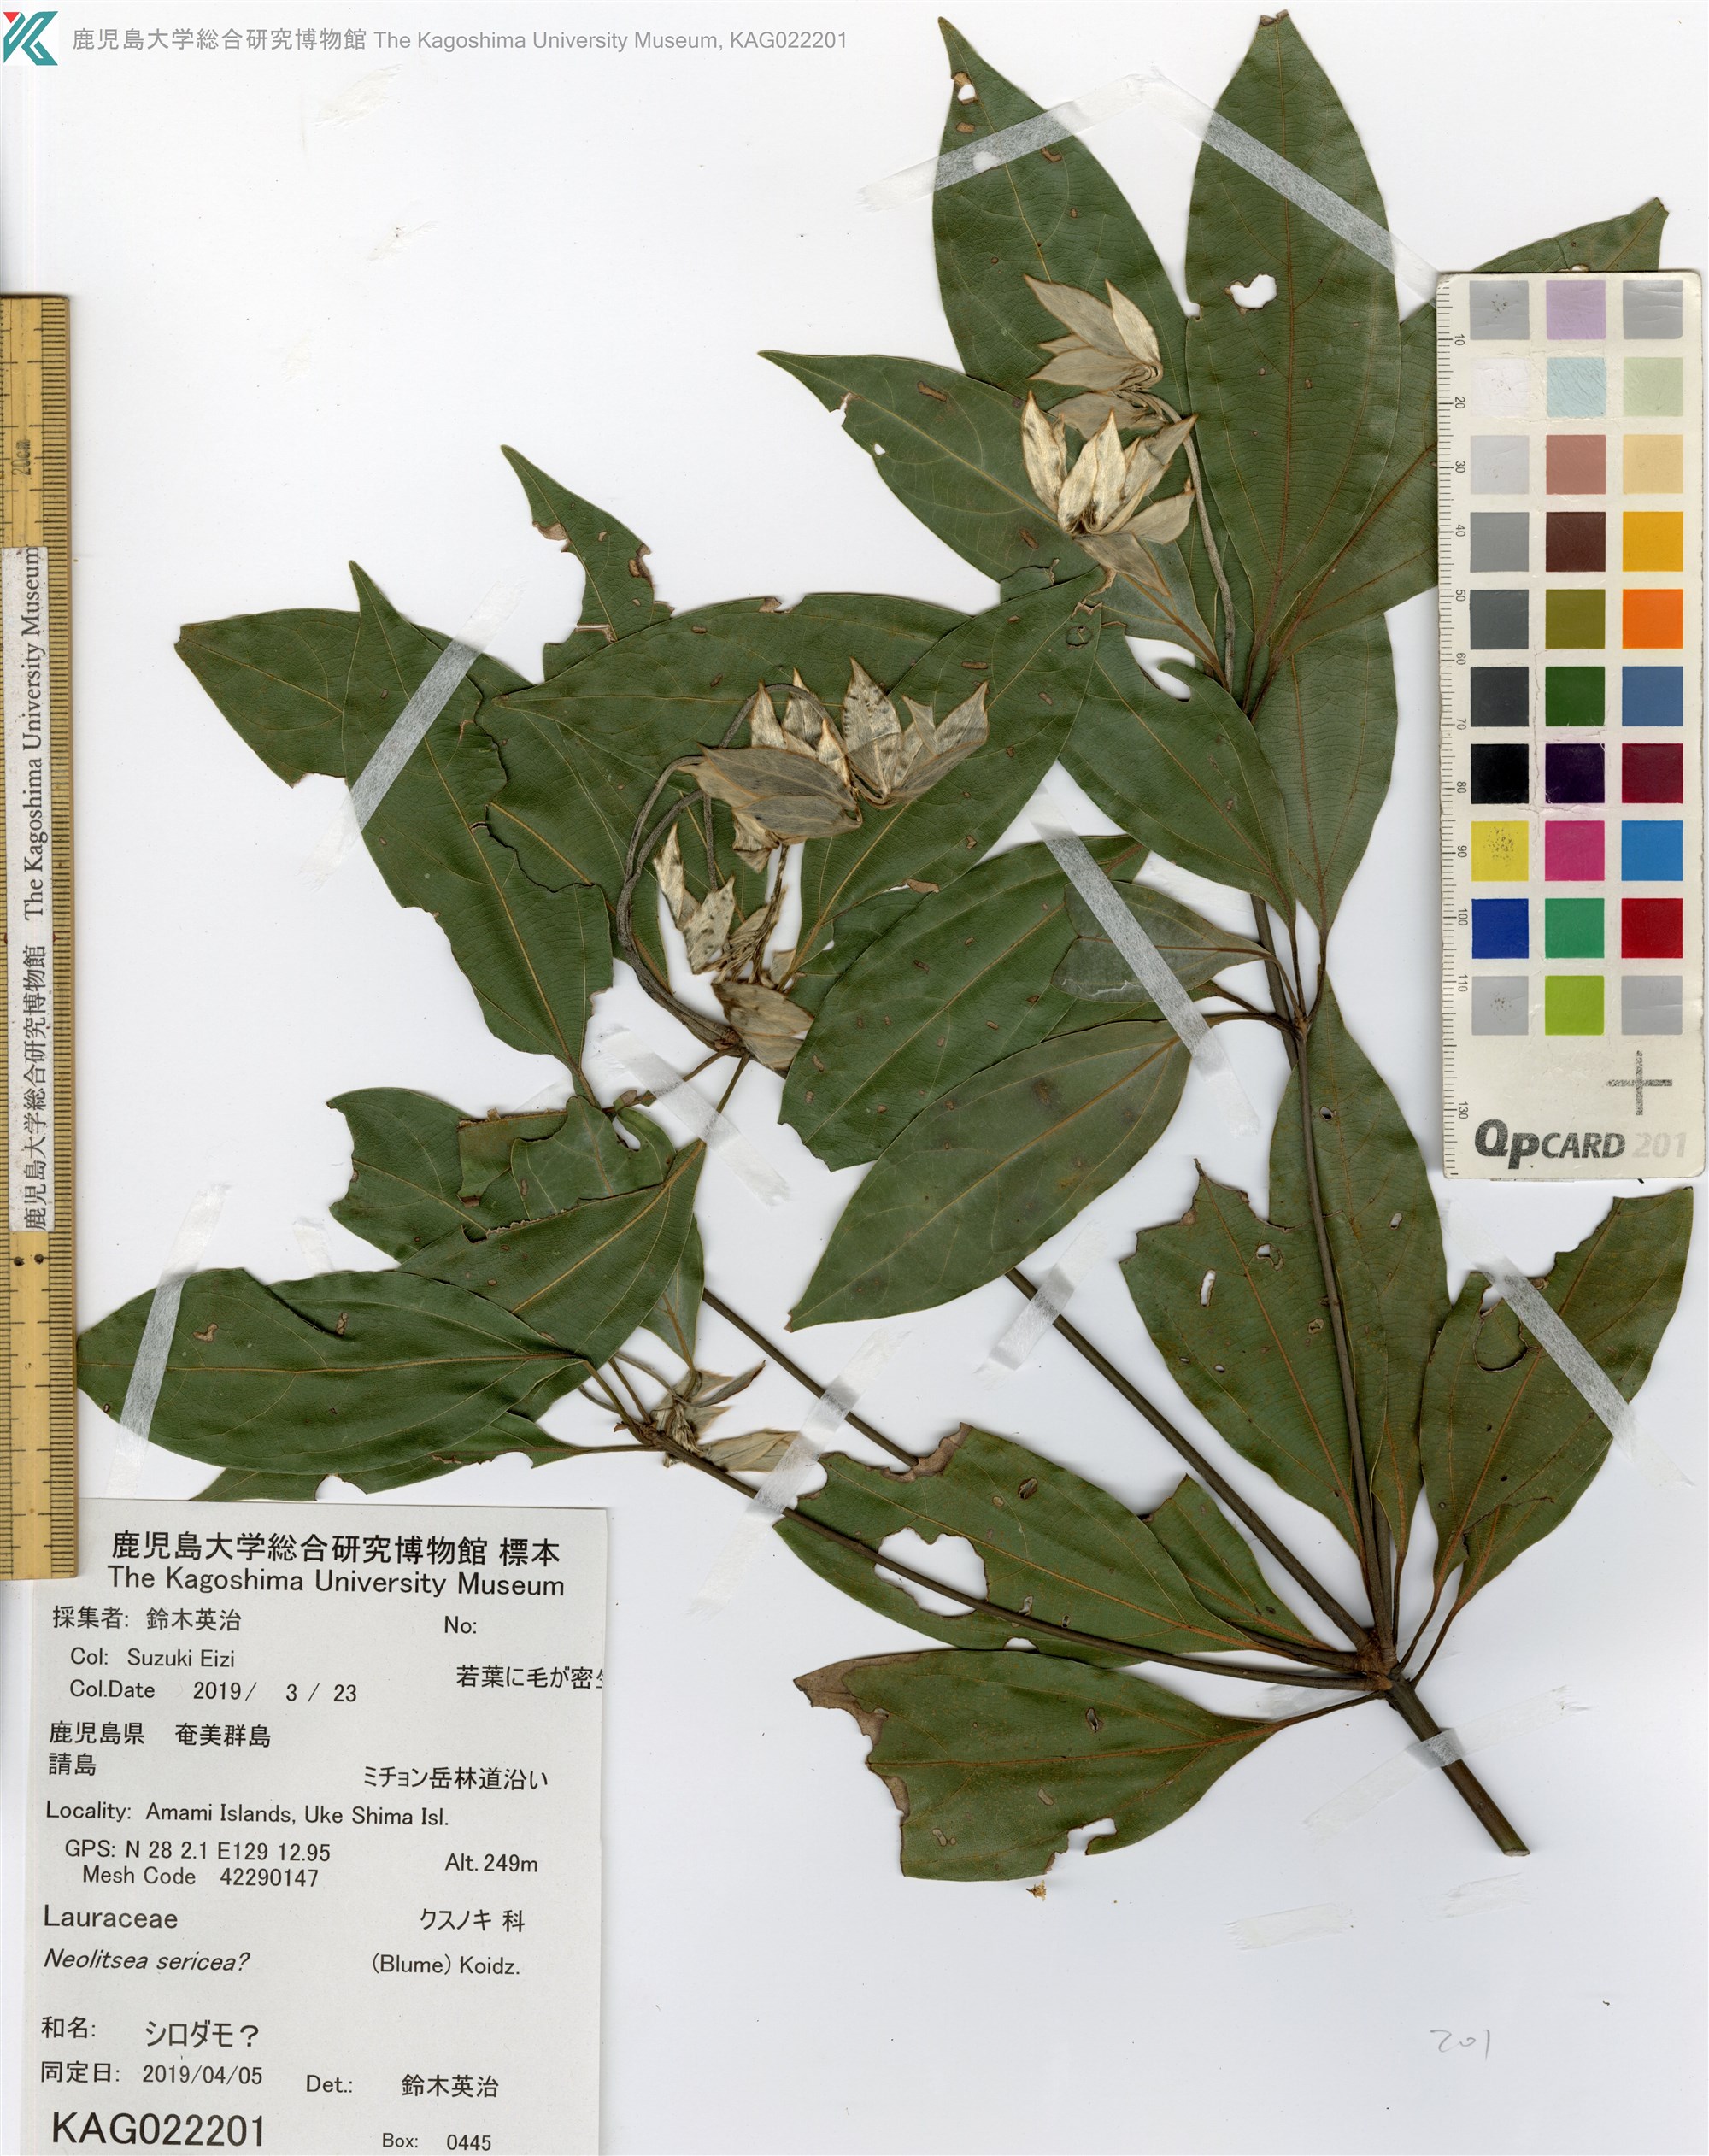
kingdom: Plantae
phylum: Tracheophyta
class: Magnoliopsida
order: Laurales
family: Lauraceae
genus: Neolitsea
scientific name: Neolitsea sericea
